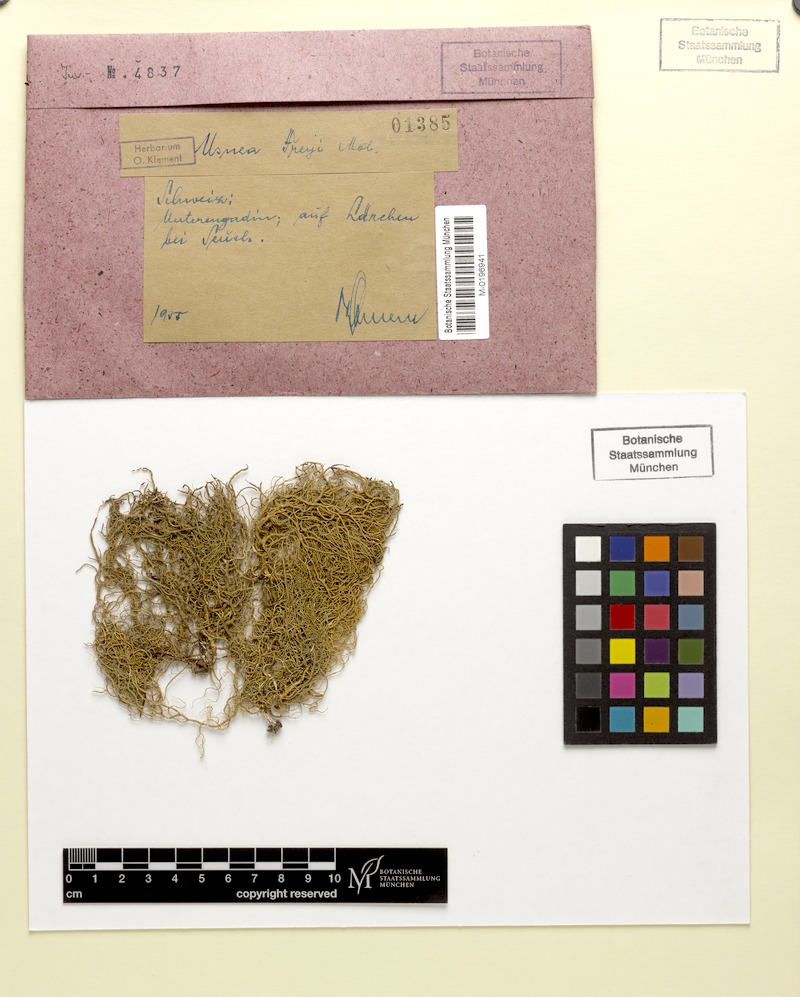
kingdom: Fungi
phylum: Ascomycota
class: Lecanoromycetes
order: Lecanorales
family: Parmeliaceae
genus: Usnea
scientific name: Usnea freyi
